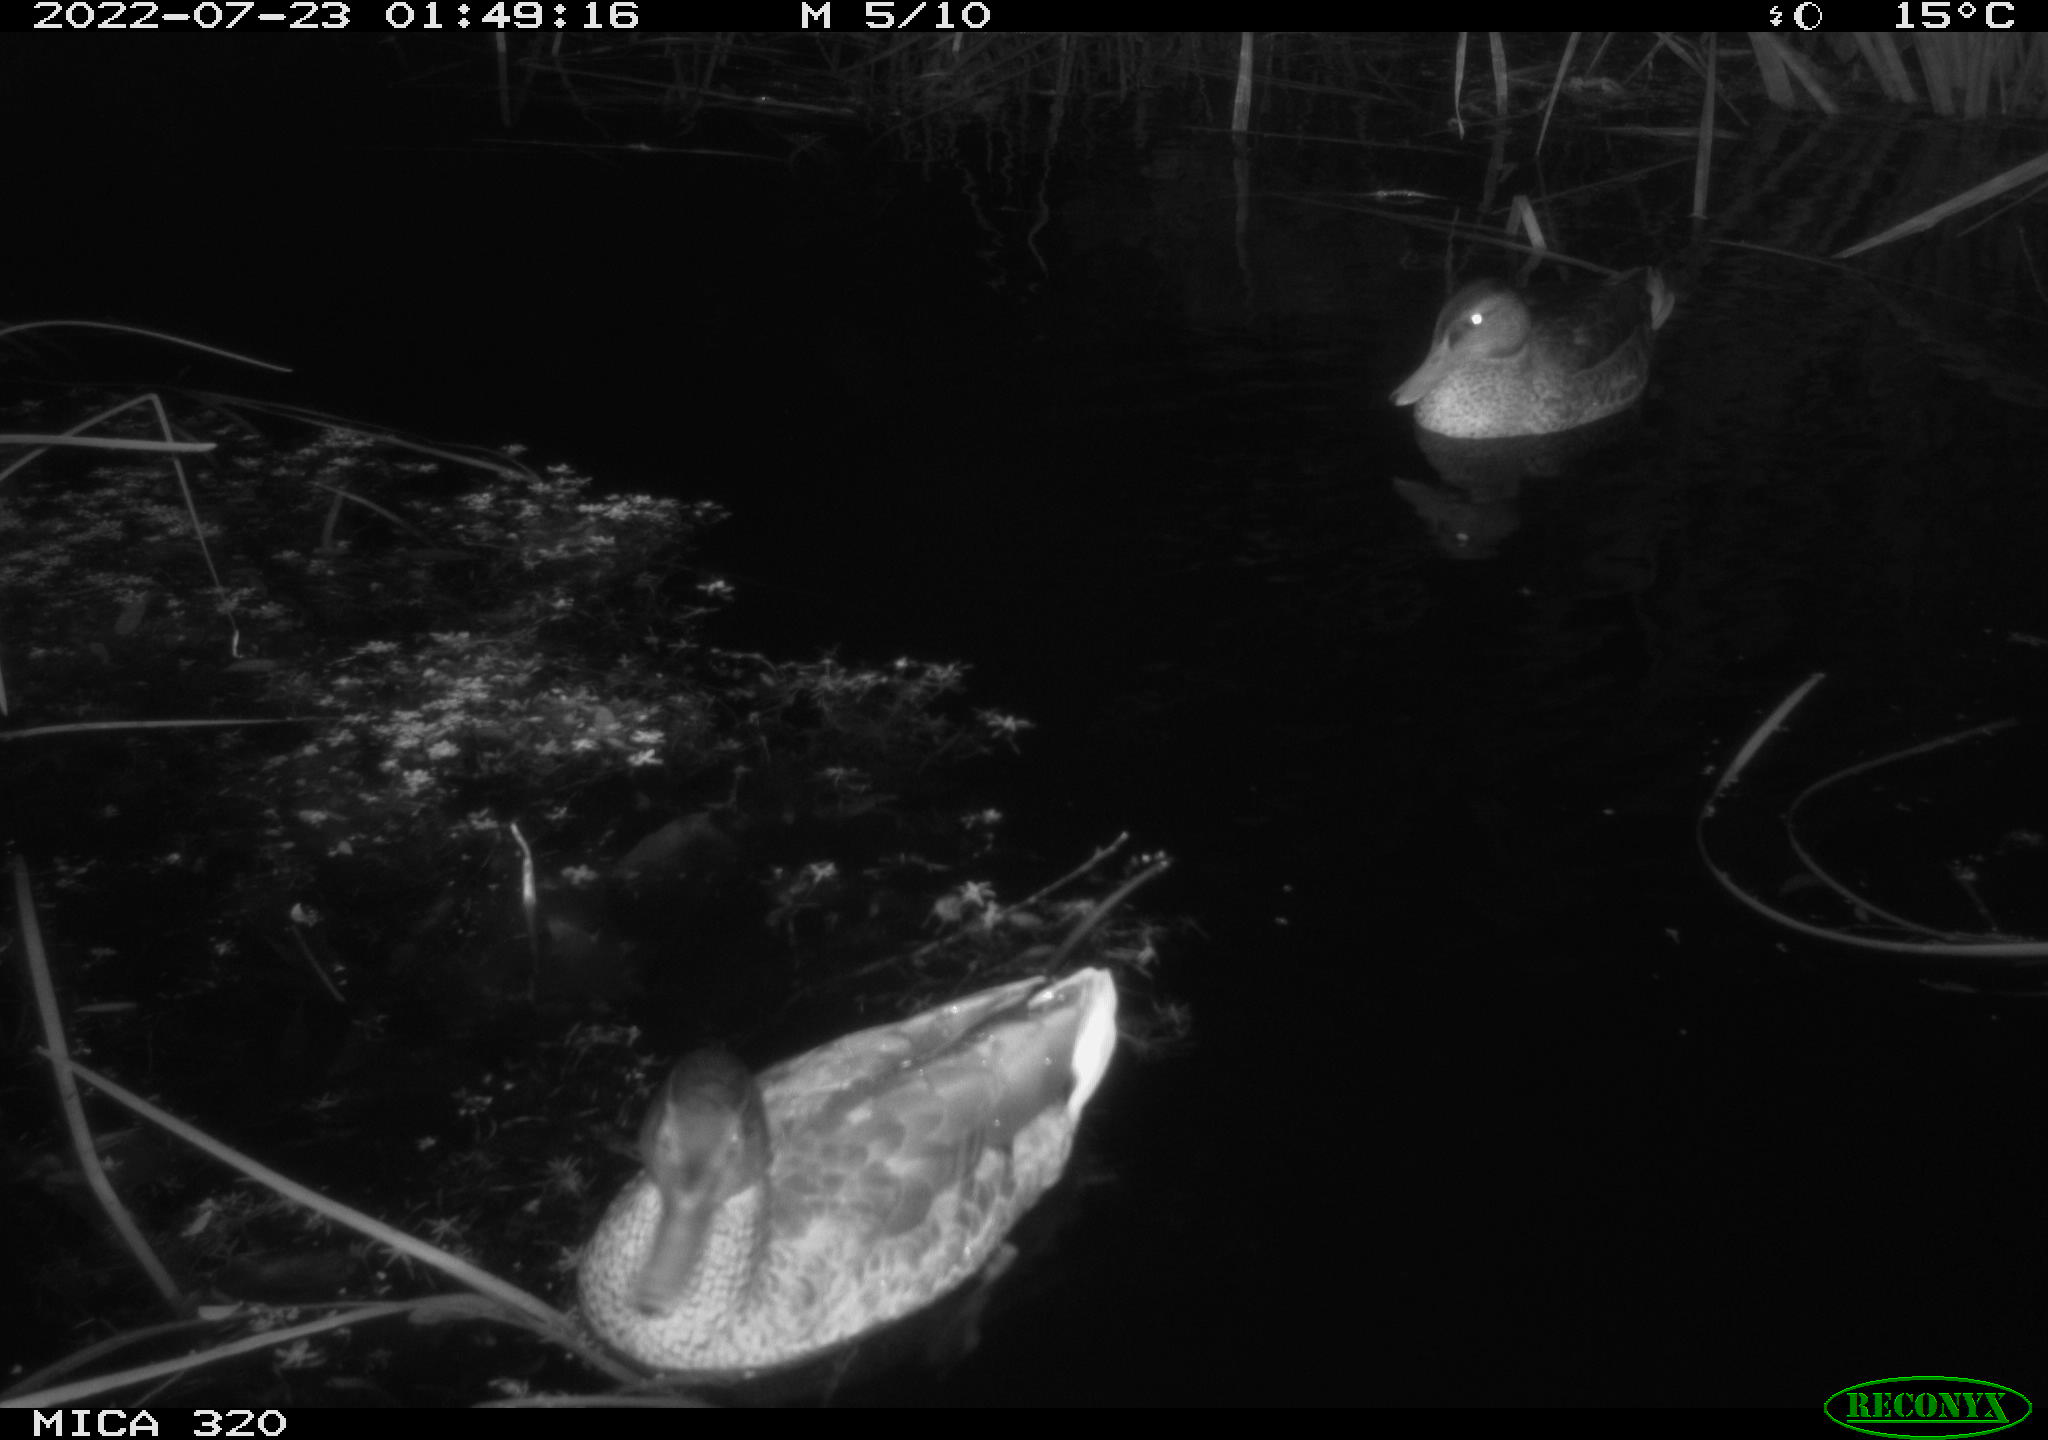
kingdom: Animalia
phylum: Chordata
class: Aves
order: Anseriformes
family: Anatidae
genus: Anas
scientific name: Anas platyrhynchos
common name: Mallard
